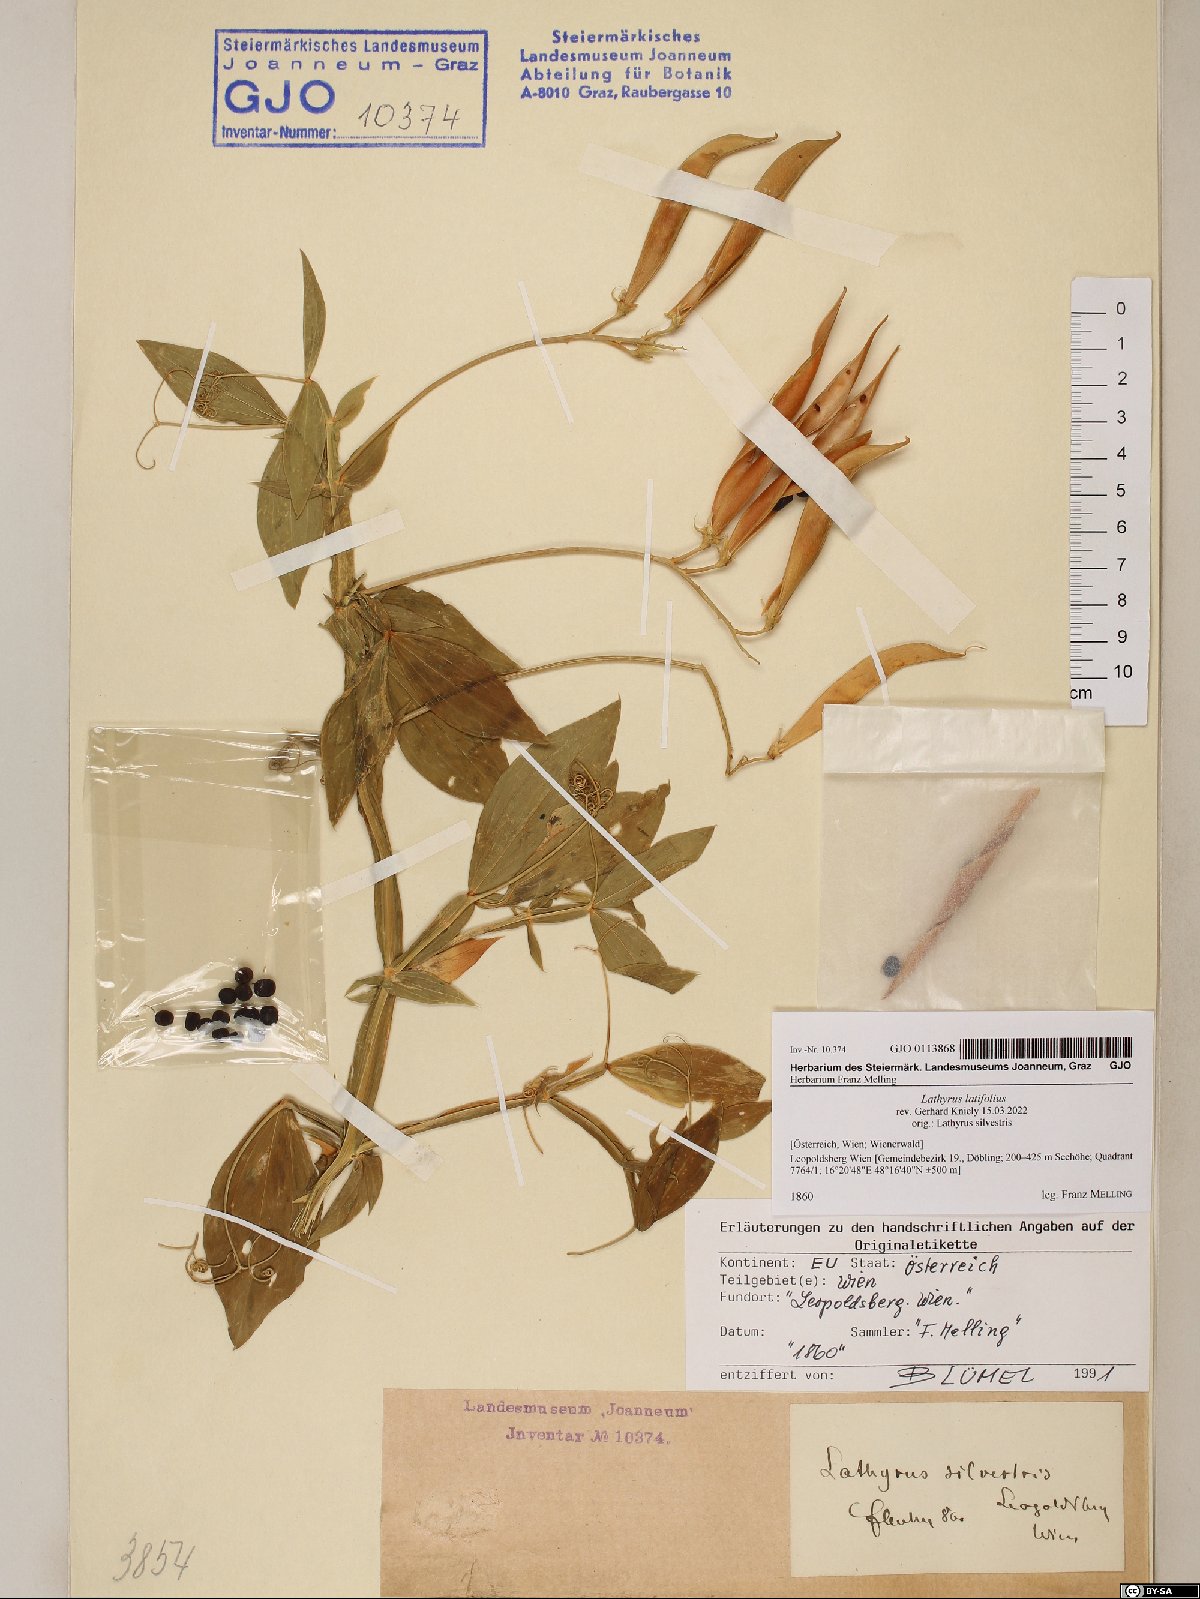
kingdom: Plantae
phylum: Tracheophyta
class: Magnoliopsida
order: Fabales
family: Fabaceae
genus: Lathyrus
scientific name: Lathyrus latifolius
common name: Perennial pea
